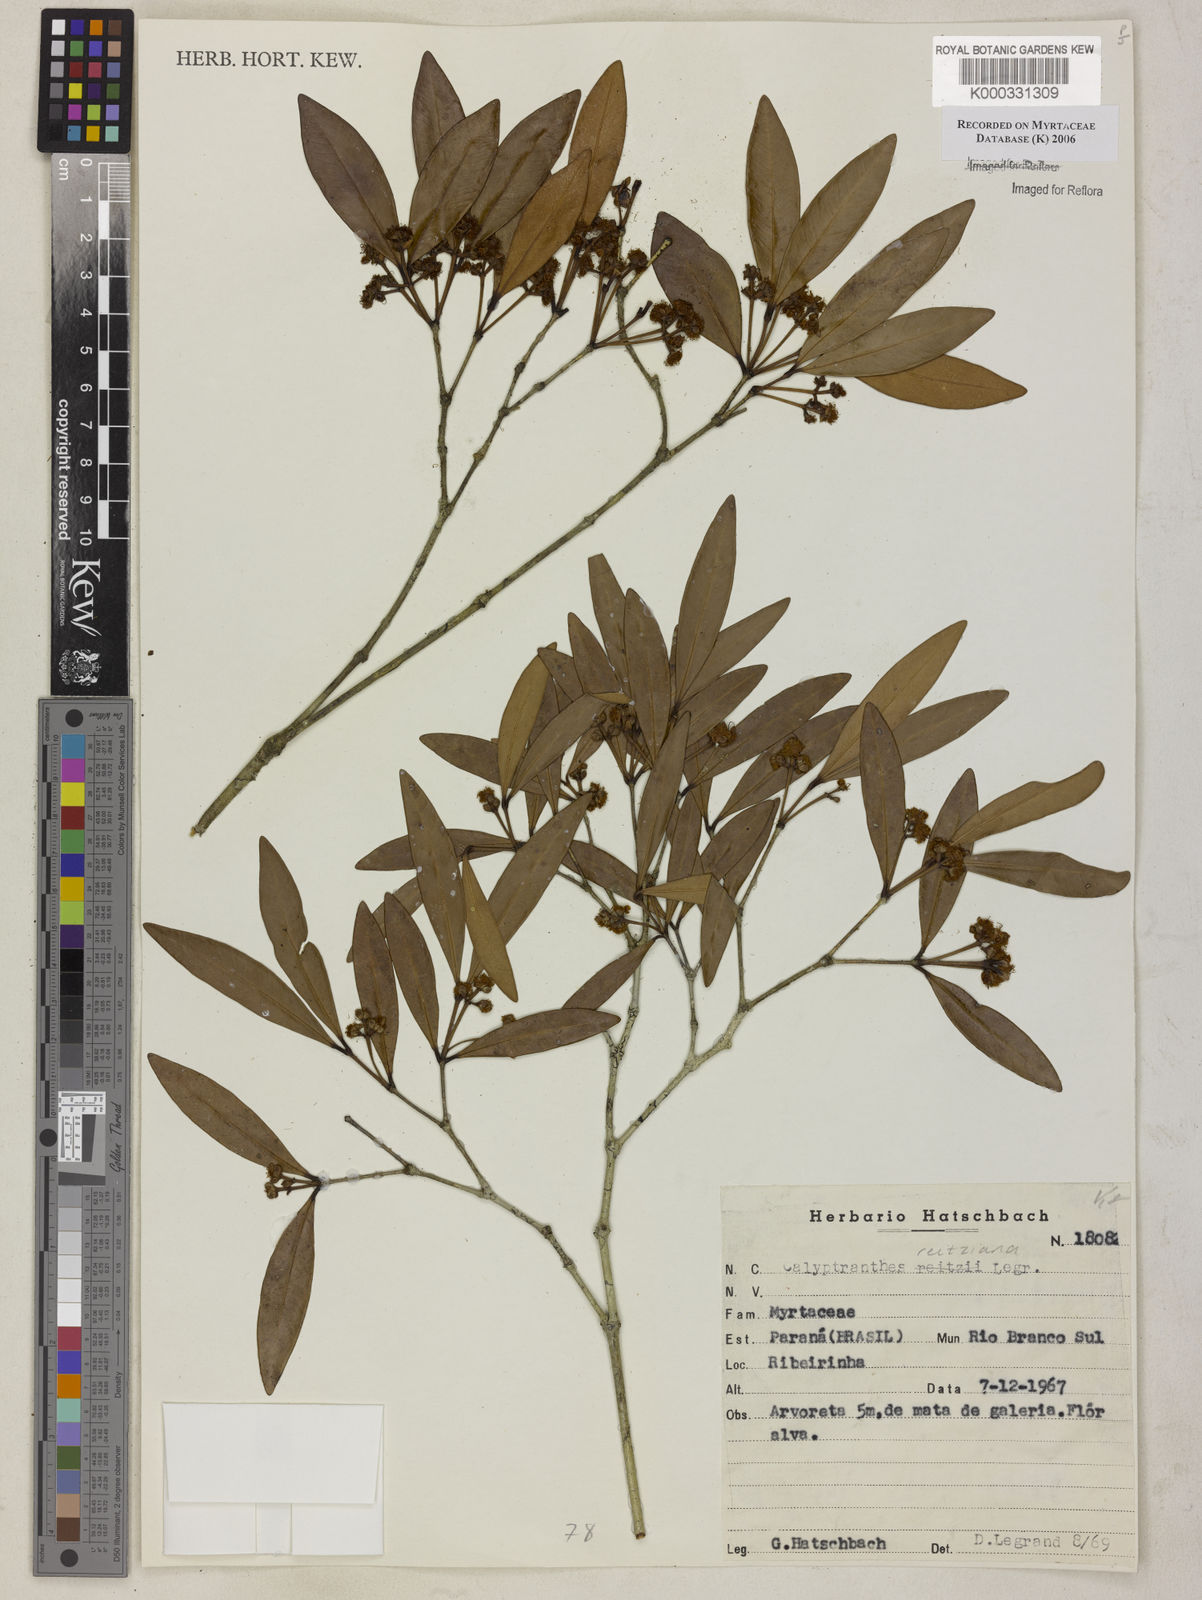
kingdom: Plantae
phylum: Tracheophyta
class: Magnoliopsida
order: Myrtales
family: Myrtaceae
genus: Myrcia
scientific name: Myrcia cruciflora
